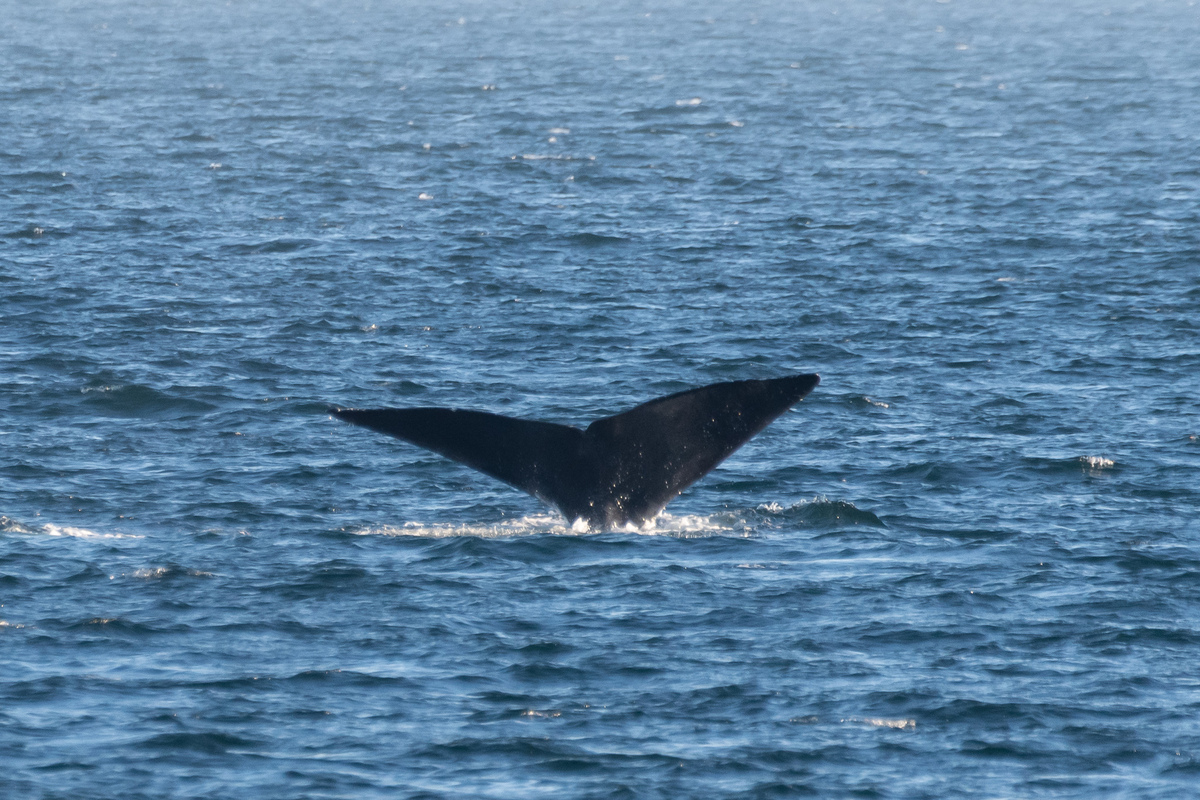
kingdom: Animalia
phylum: Chordata
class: Mammalia
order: Cetacea
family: Balaenidae
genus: Eubalaena
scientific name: Eubalaena glacialis
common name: North atlantic right whale
